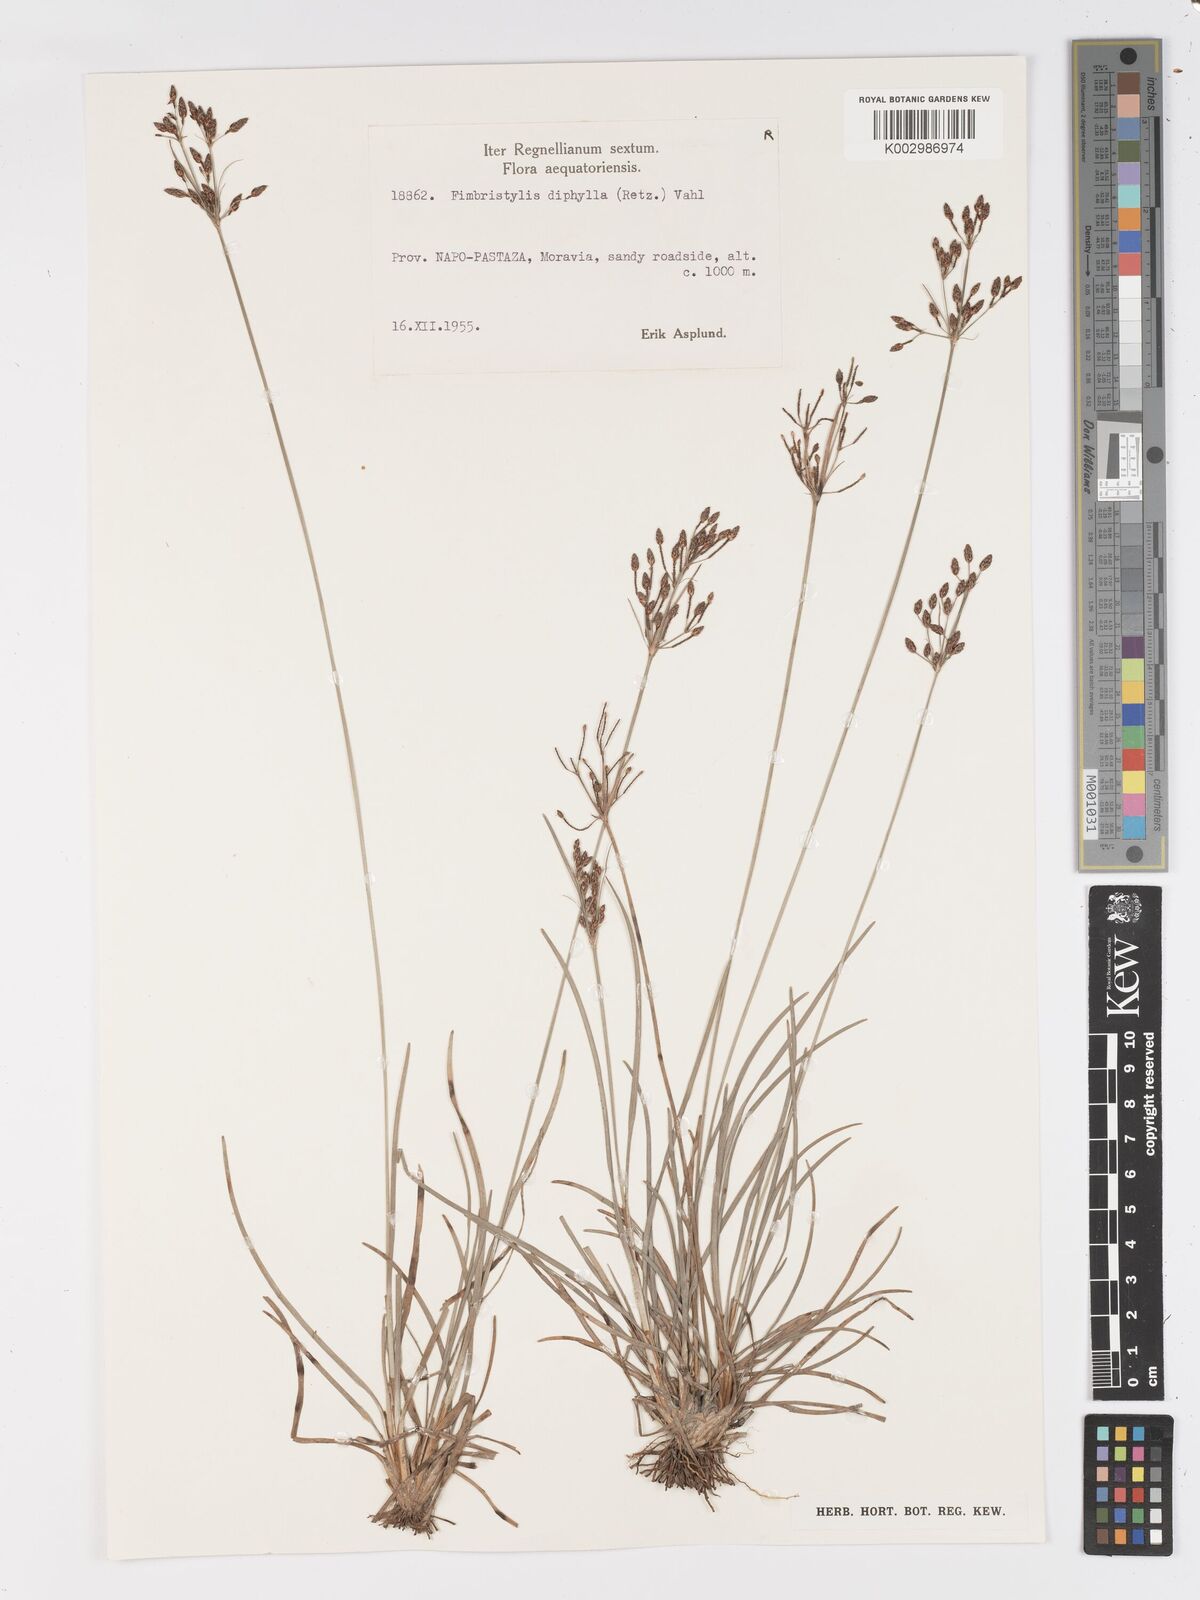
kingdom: Plantae
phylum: Tracheophyta
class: Liliopsida
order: Poales
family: Cyperaceae
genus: Fimbristylis
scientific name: Fimbristylis dichotoma
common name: Forked fimbry
